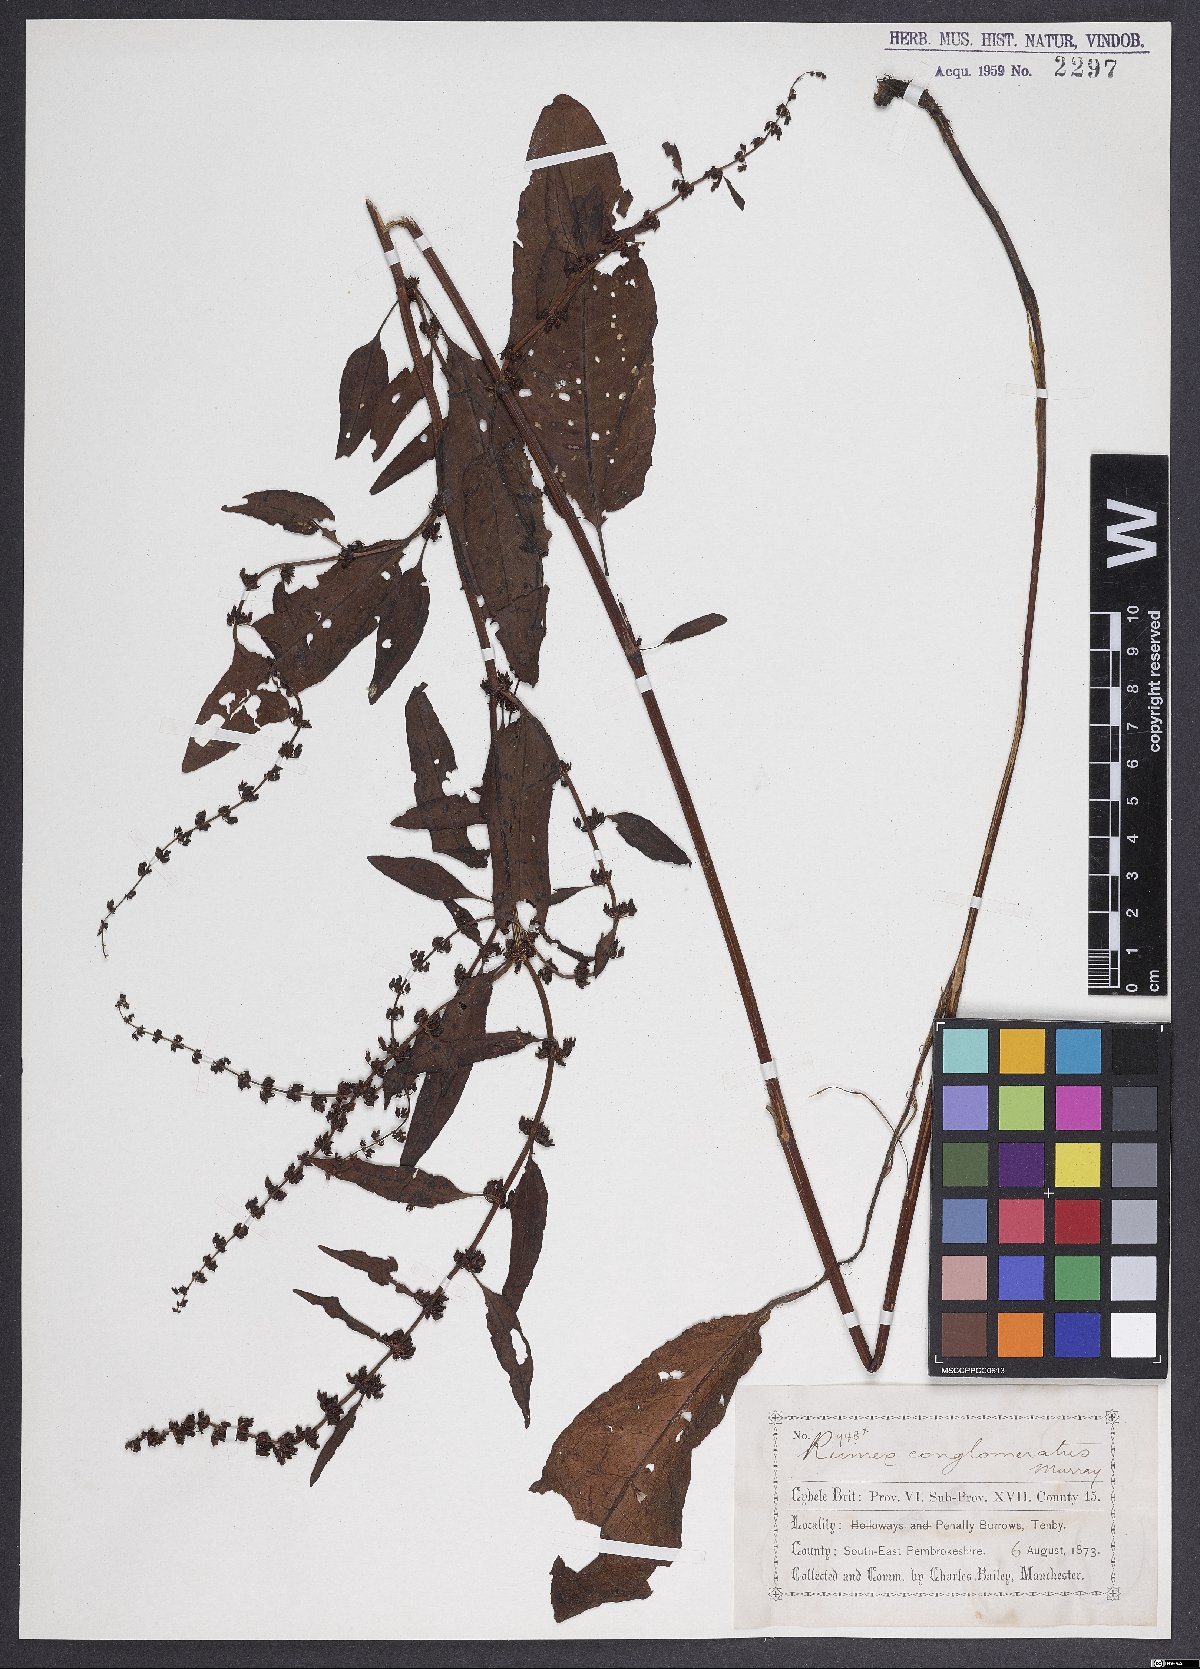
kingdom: Plantae
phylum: Tracheophyta
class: Magnoliopsida
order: Caryophyllales
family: Polygonaceae
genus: Rumex
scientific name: Rumex conglomeratus
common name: Clustered dock
